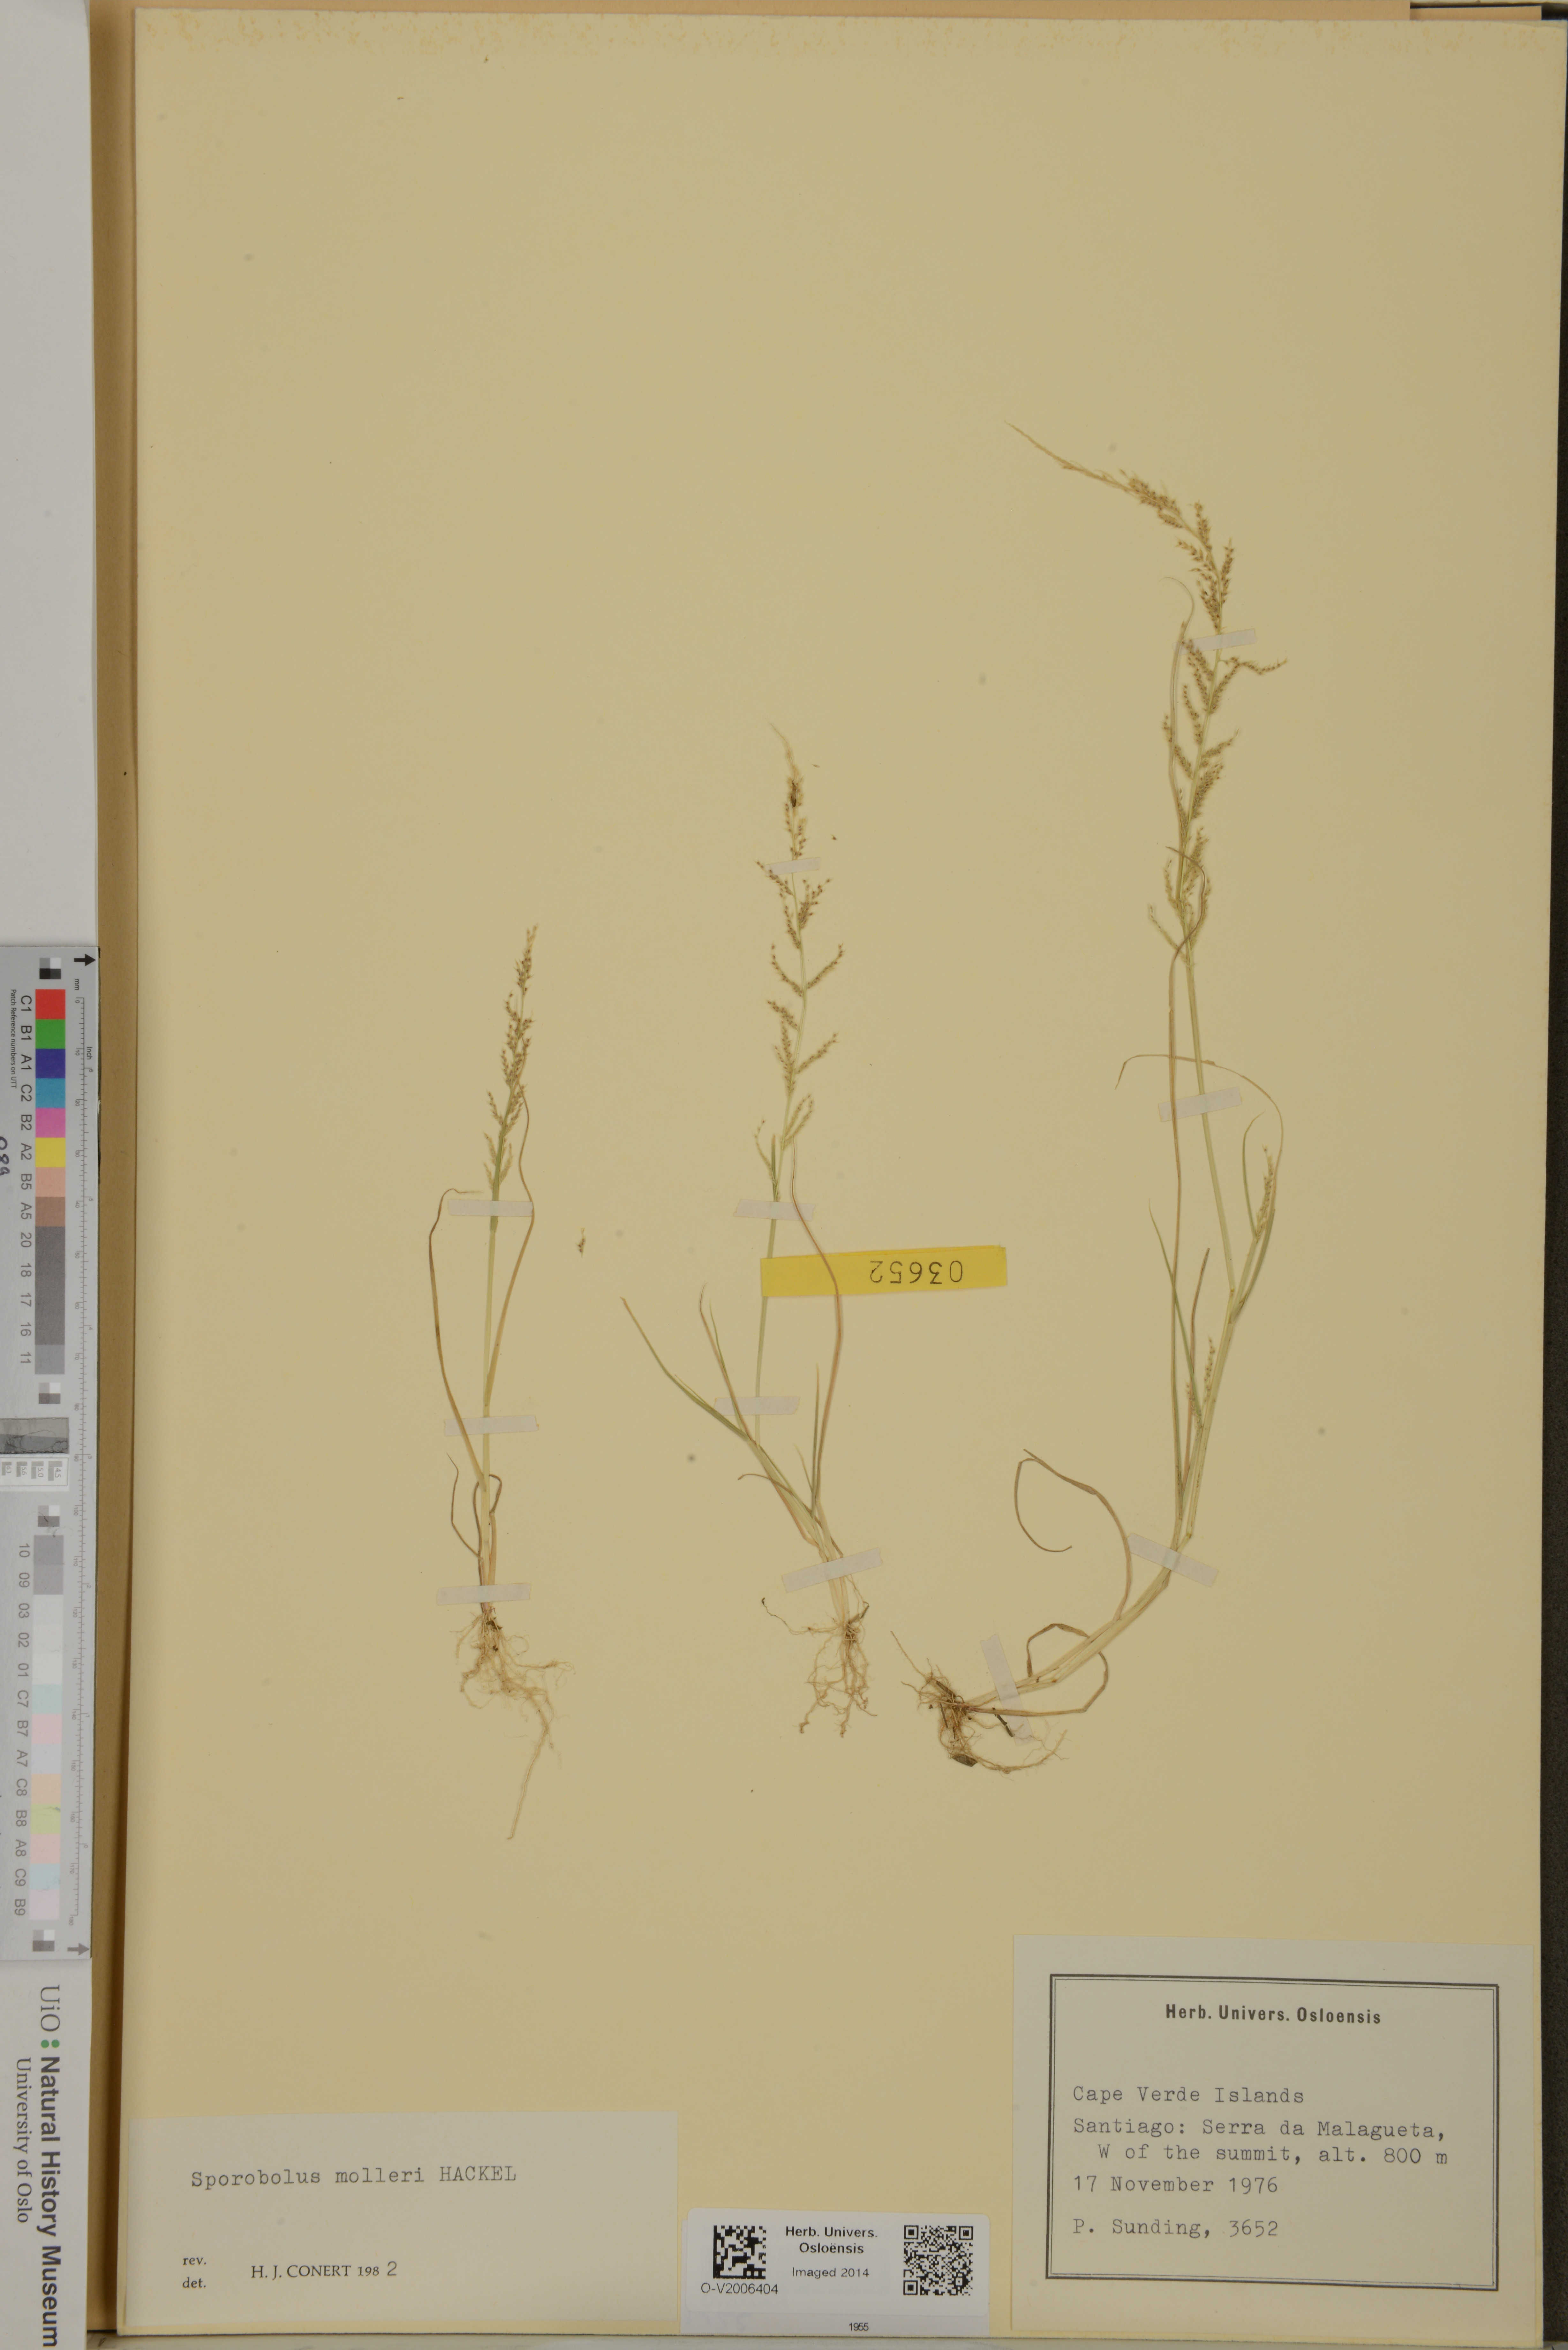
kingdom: Plantae
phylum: Tracheophyta
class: Liliopsida
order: Poales
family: Poaceae
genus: Sporobolus
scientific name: Sporobolus molleri
